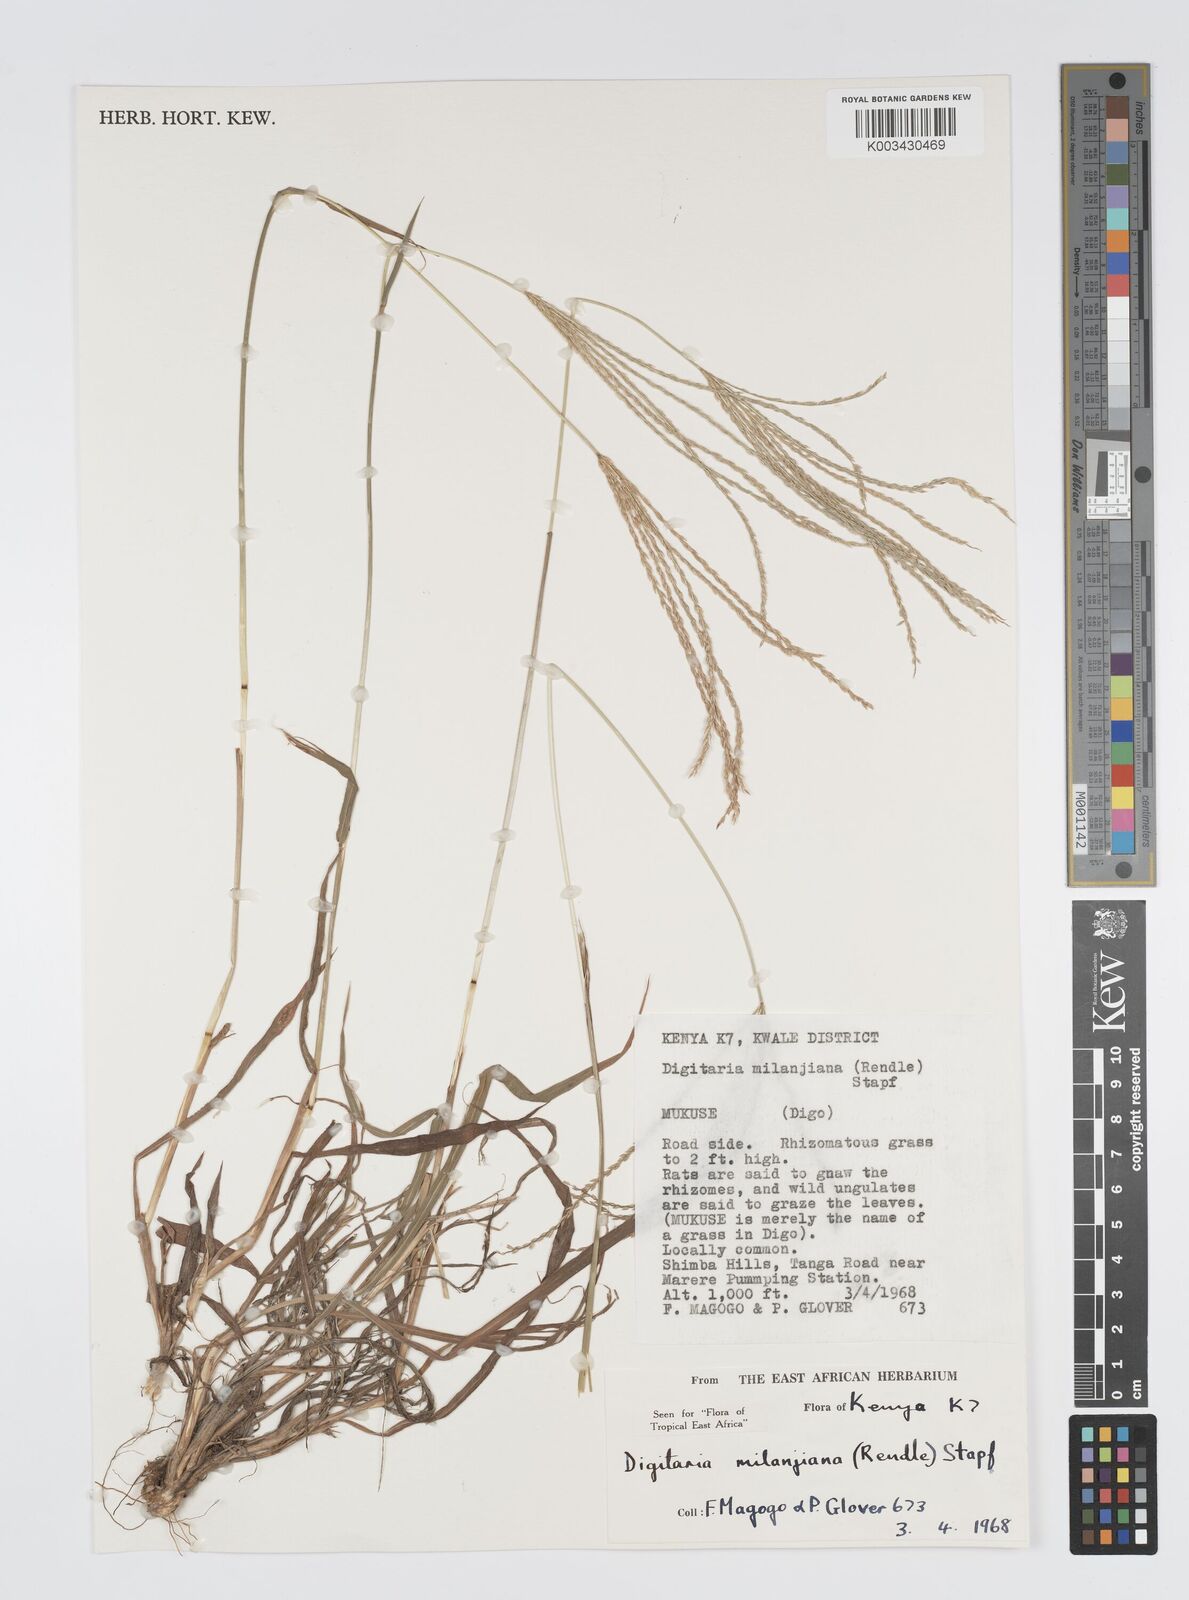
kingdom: Plantae
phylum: Tracheophyta
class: Liliopsida
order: Poales
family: Poaceae
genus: Digitaria
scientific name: Digitaria milanjiana
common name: Madagascar crabgrass
